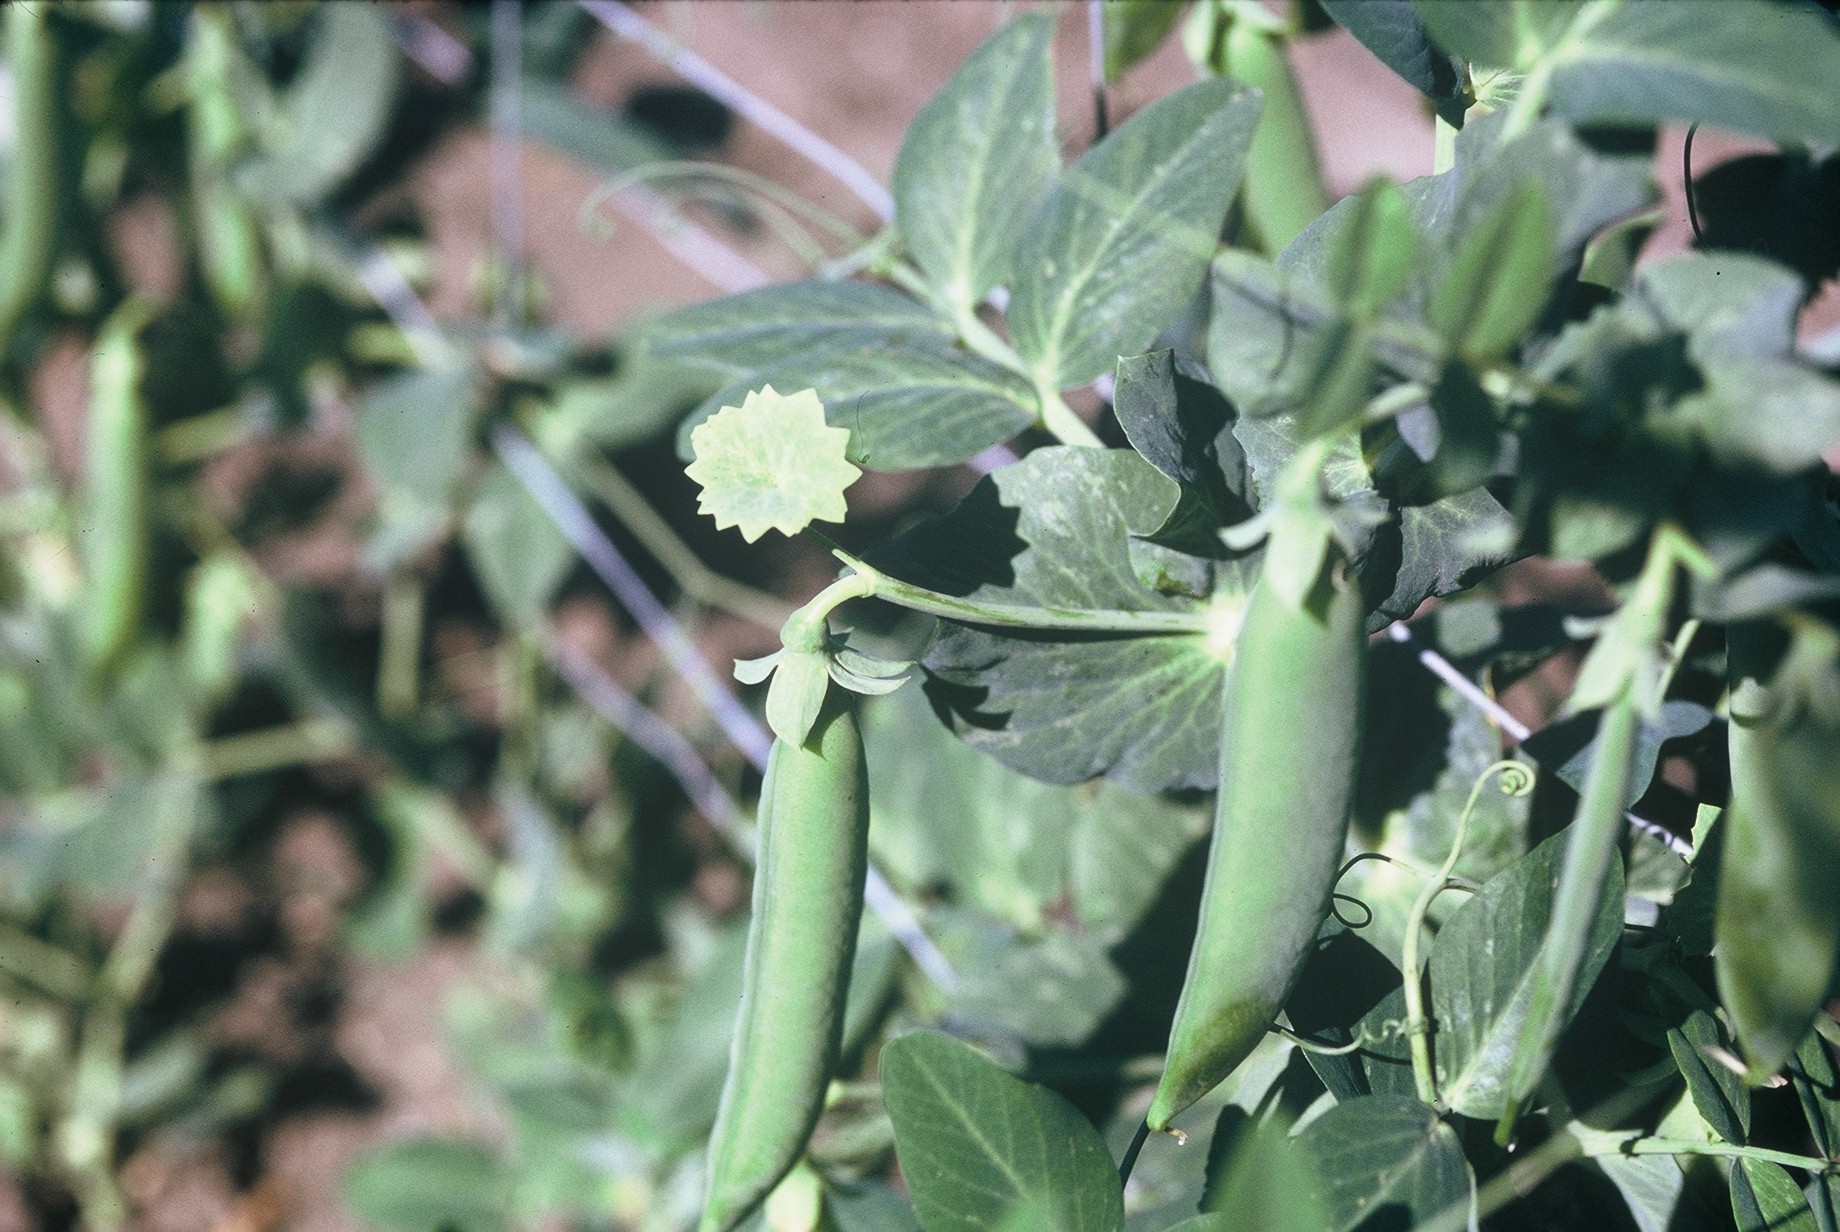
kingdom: Plantae
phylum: Tracheophyta
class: Magnoliopsida
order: Fabales
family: Fabaceae
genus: Lathyrus
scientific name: Lathyrus oleraceus
